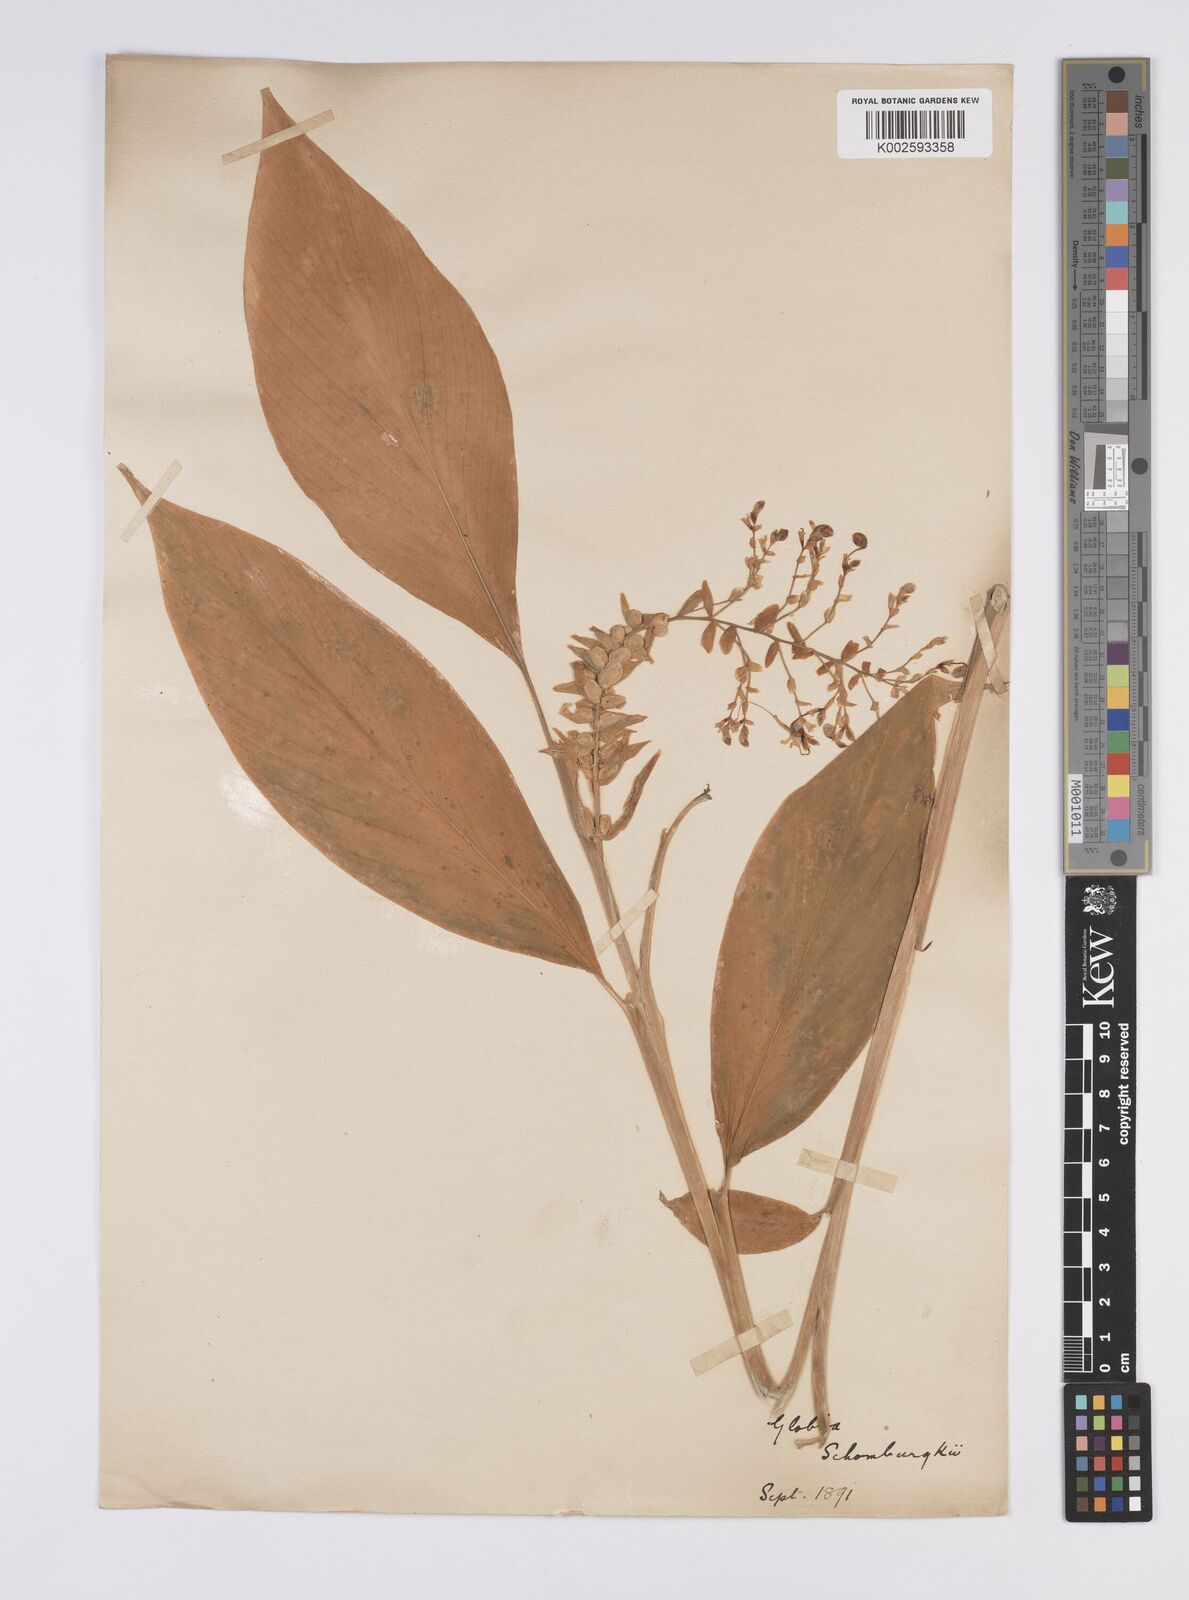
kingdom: Plantae
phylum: Tracheophyta
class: Liliopsida
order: Zingiberales
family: Zingiberaceae
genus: Globba
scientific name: Globba schomburgkii
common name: Dancing girl ginger
